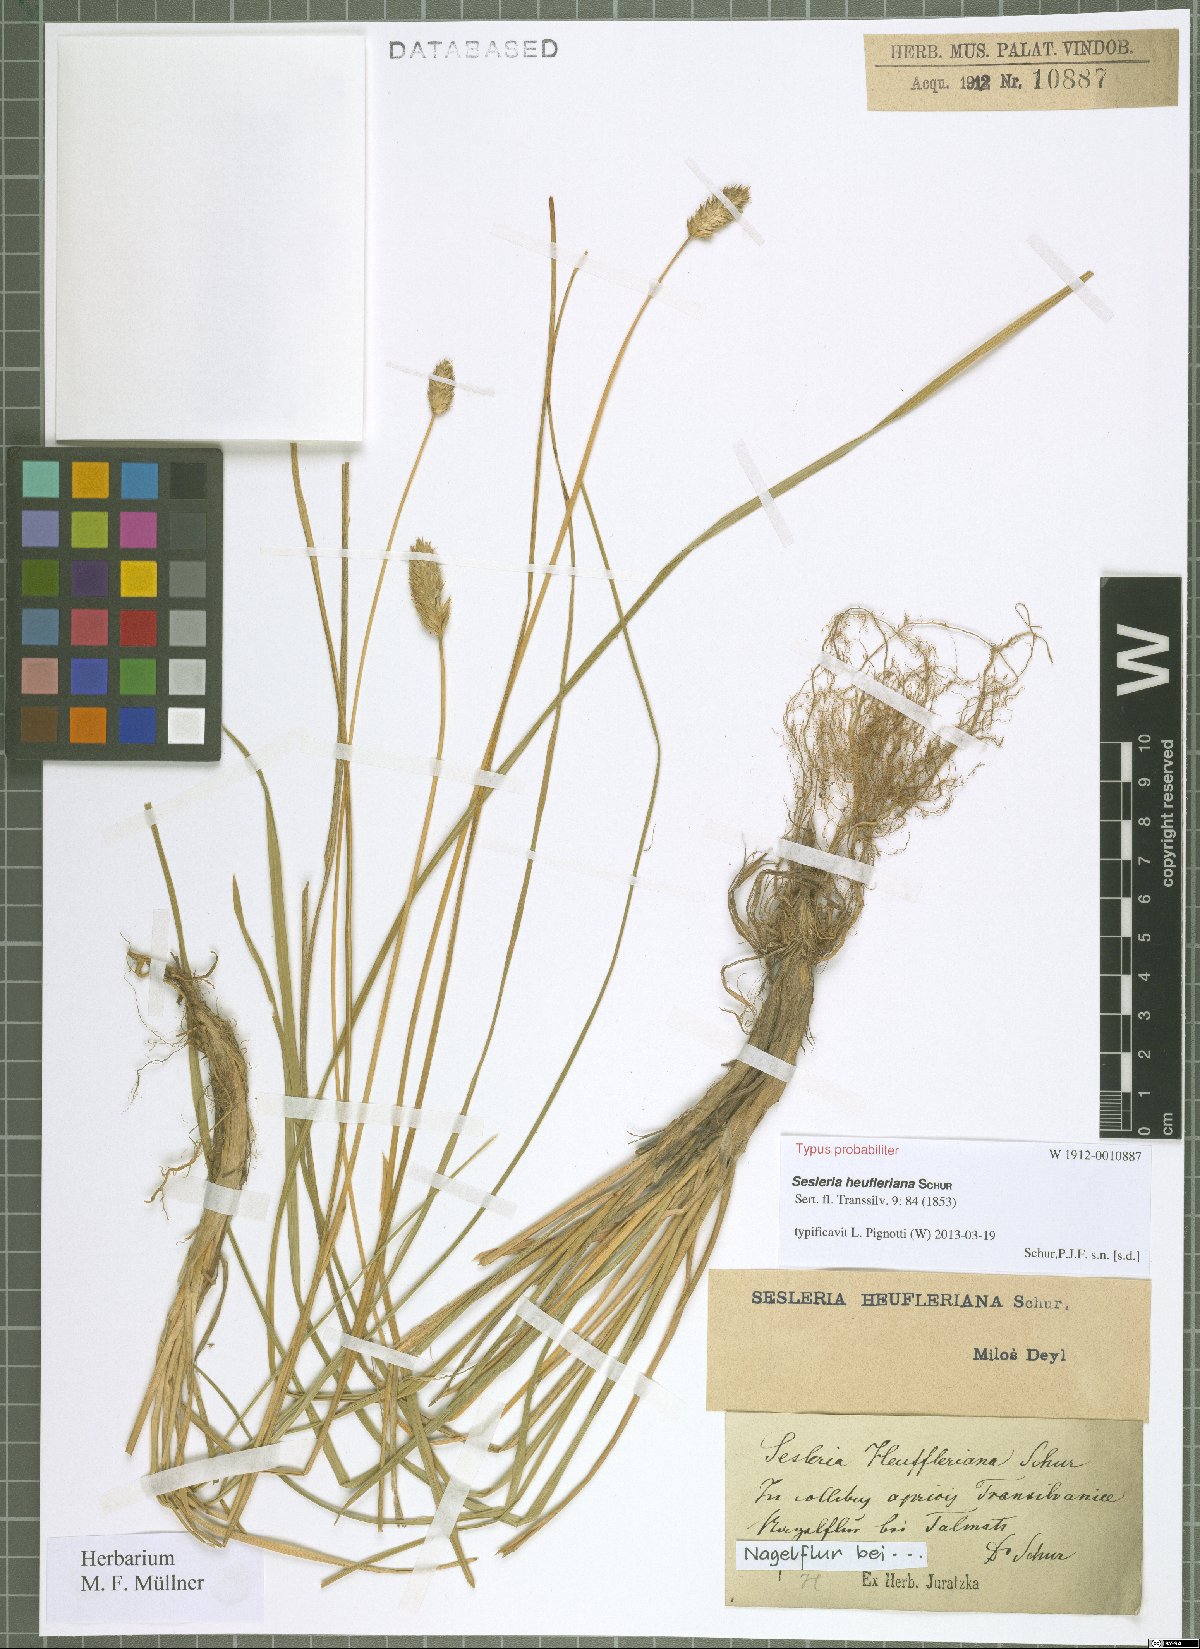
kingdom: Plantae
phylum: Tracheophyta
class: Liliopsida
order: Poales
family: Poaceae
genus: Sesleria
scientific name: Sesleria heufleriana
